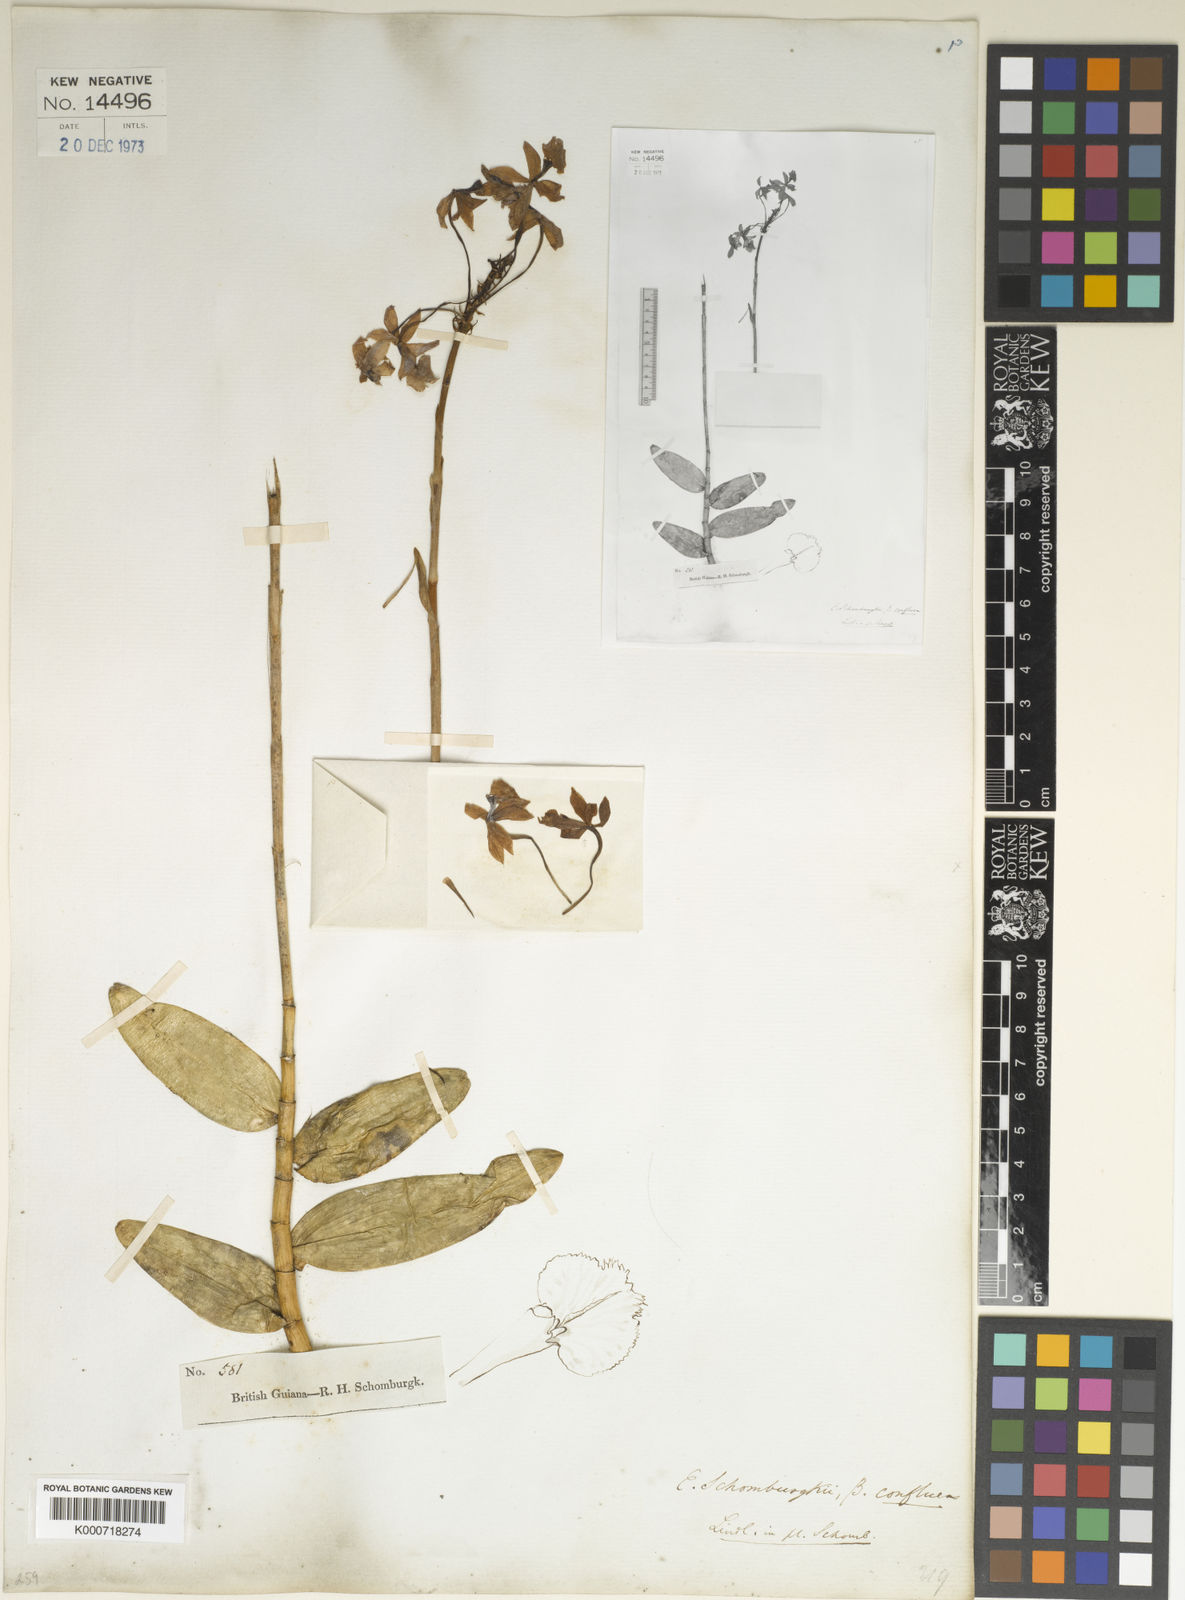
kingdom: Plantae
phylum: Tracheophyta
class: Liliopsida
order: Asparagales
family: Orchidaceae
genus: Epidendrum
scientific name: Epidendrum calanthum
